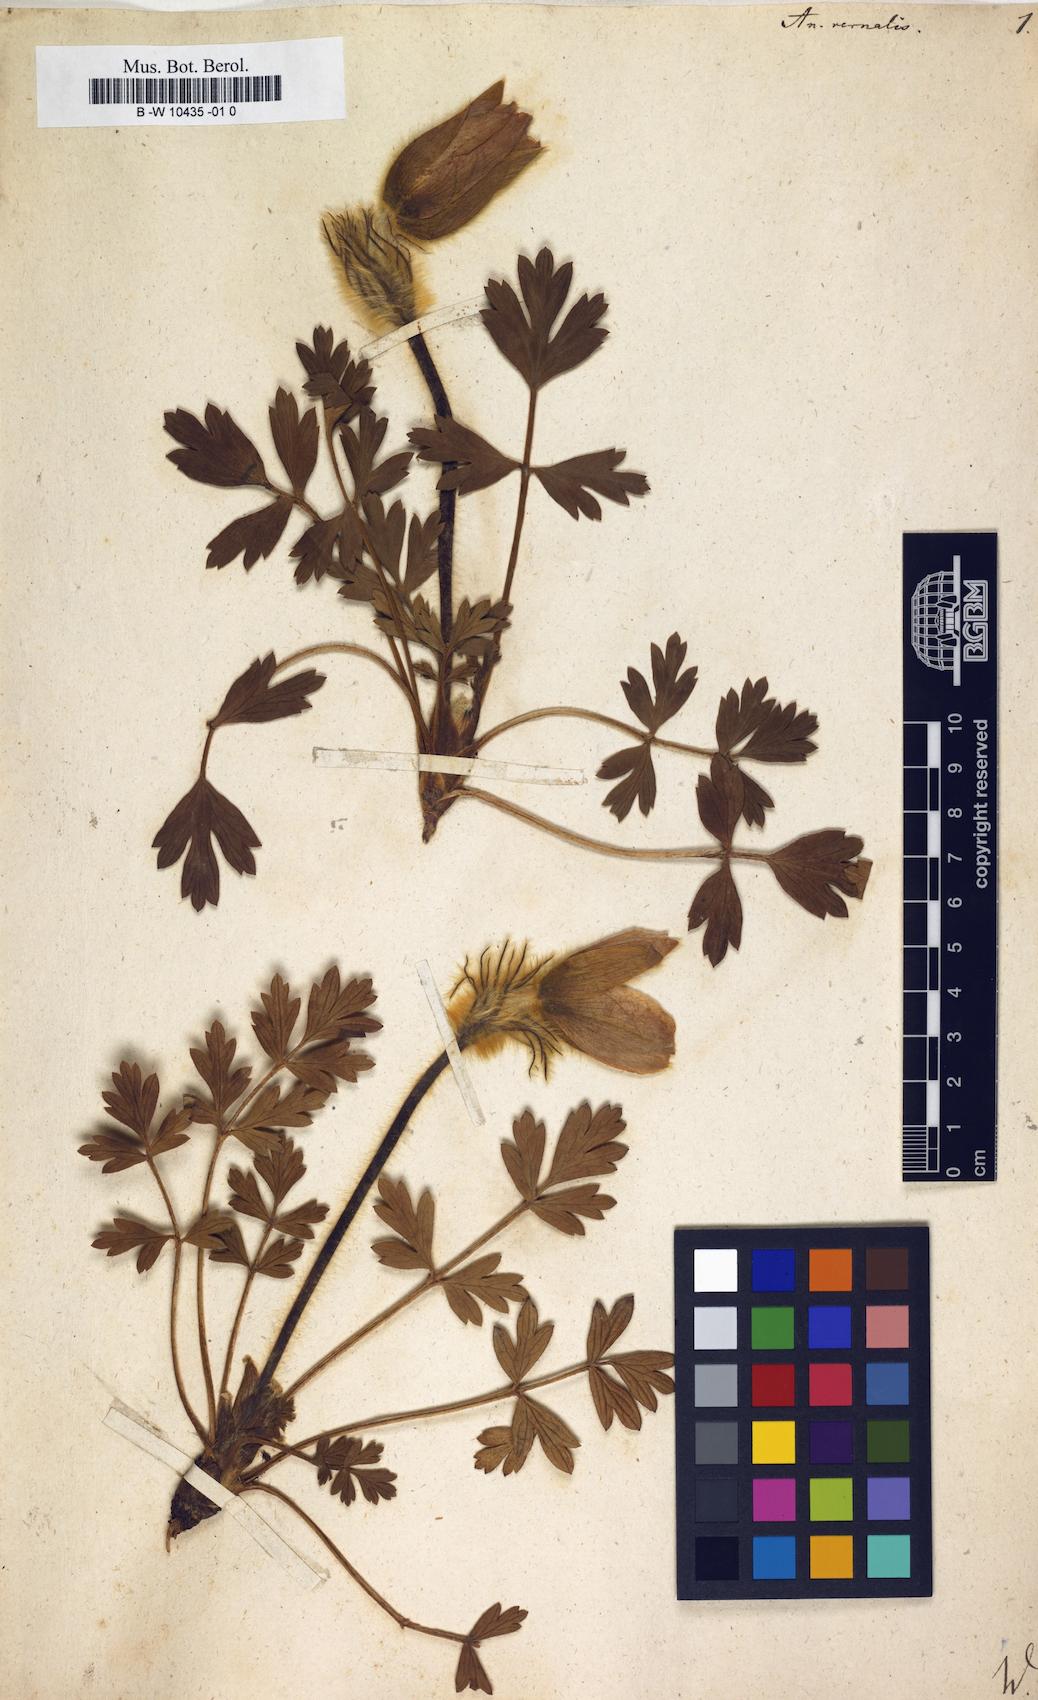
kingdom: Plantae
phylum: Tracheophyta
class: Magnoliopsida
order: Ranunculales
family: Ranunculaceae
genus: Pulsatilla
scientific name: Pulsatilla vernalis
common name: Spring pasque flower
